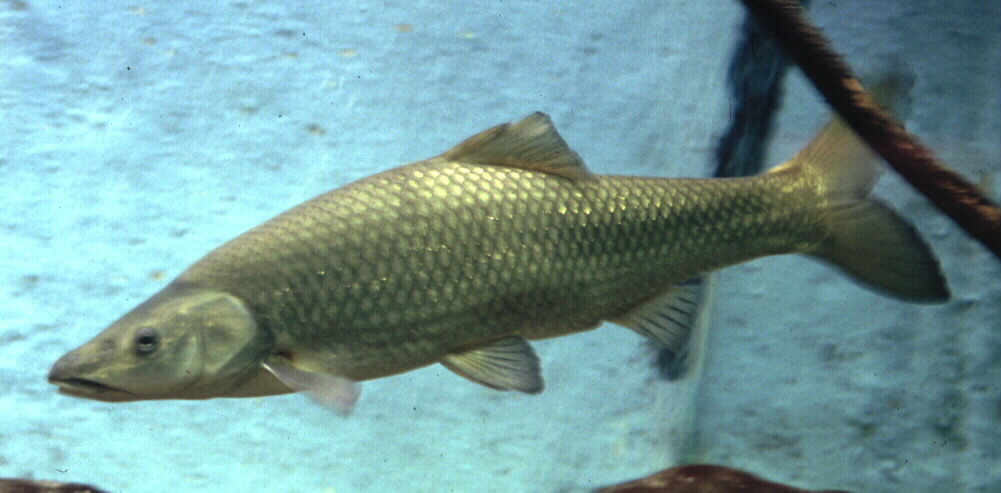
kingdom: Animalia
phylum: Chordata
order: Cypriniformes
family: Cyprinidae
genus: Pseudobarbus
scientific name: Pseudobarbus serra
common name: Clanwilliam sawfin
